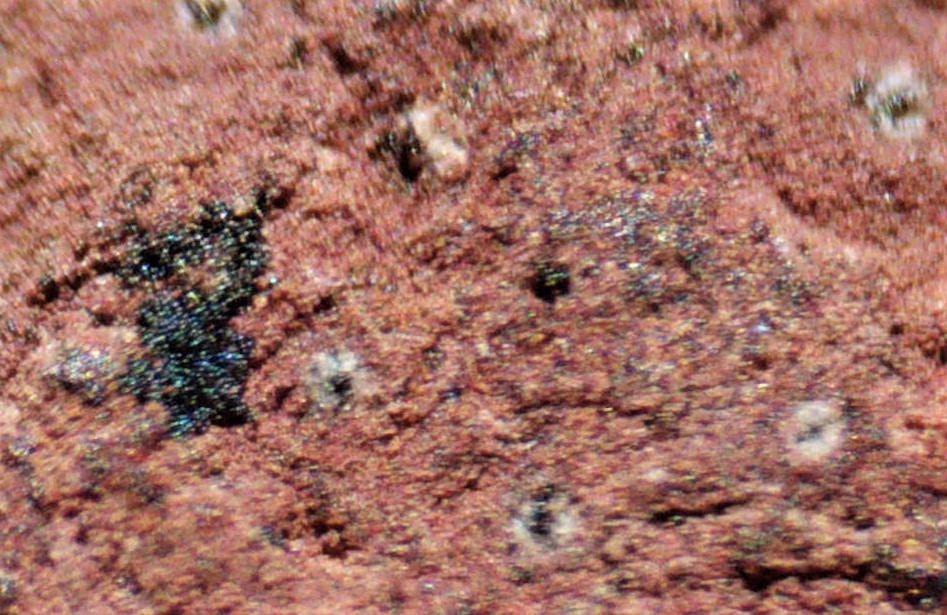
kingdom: Fungi
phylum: Ascomycota
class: Sordariomycetes
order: Xylariales
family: Hypoxylaceae
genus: Hypoxylon
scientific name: Hypoxylon petriniae
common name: nedsænket kulbær
